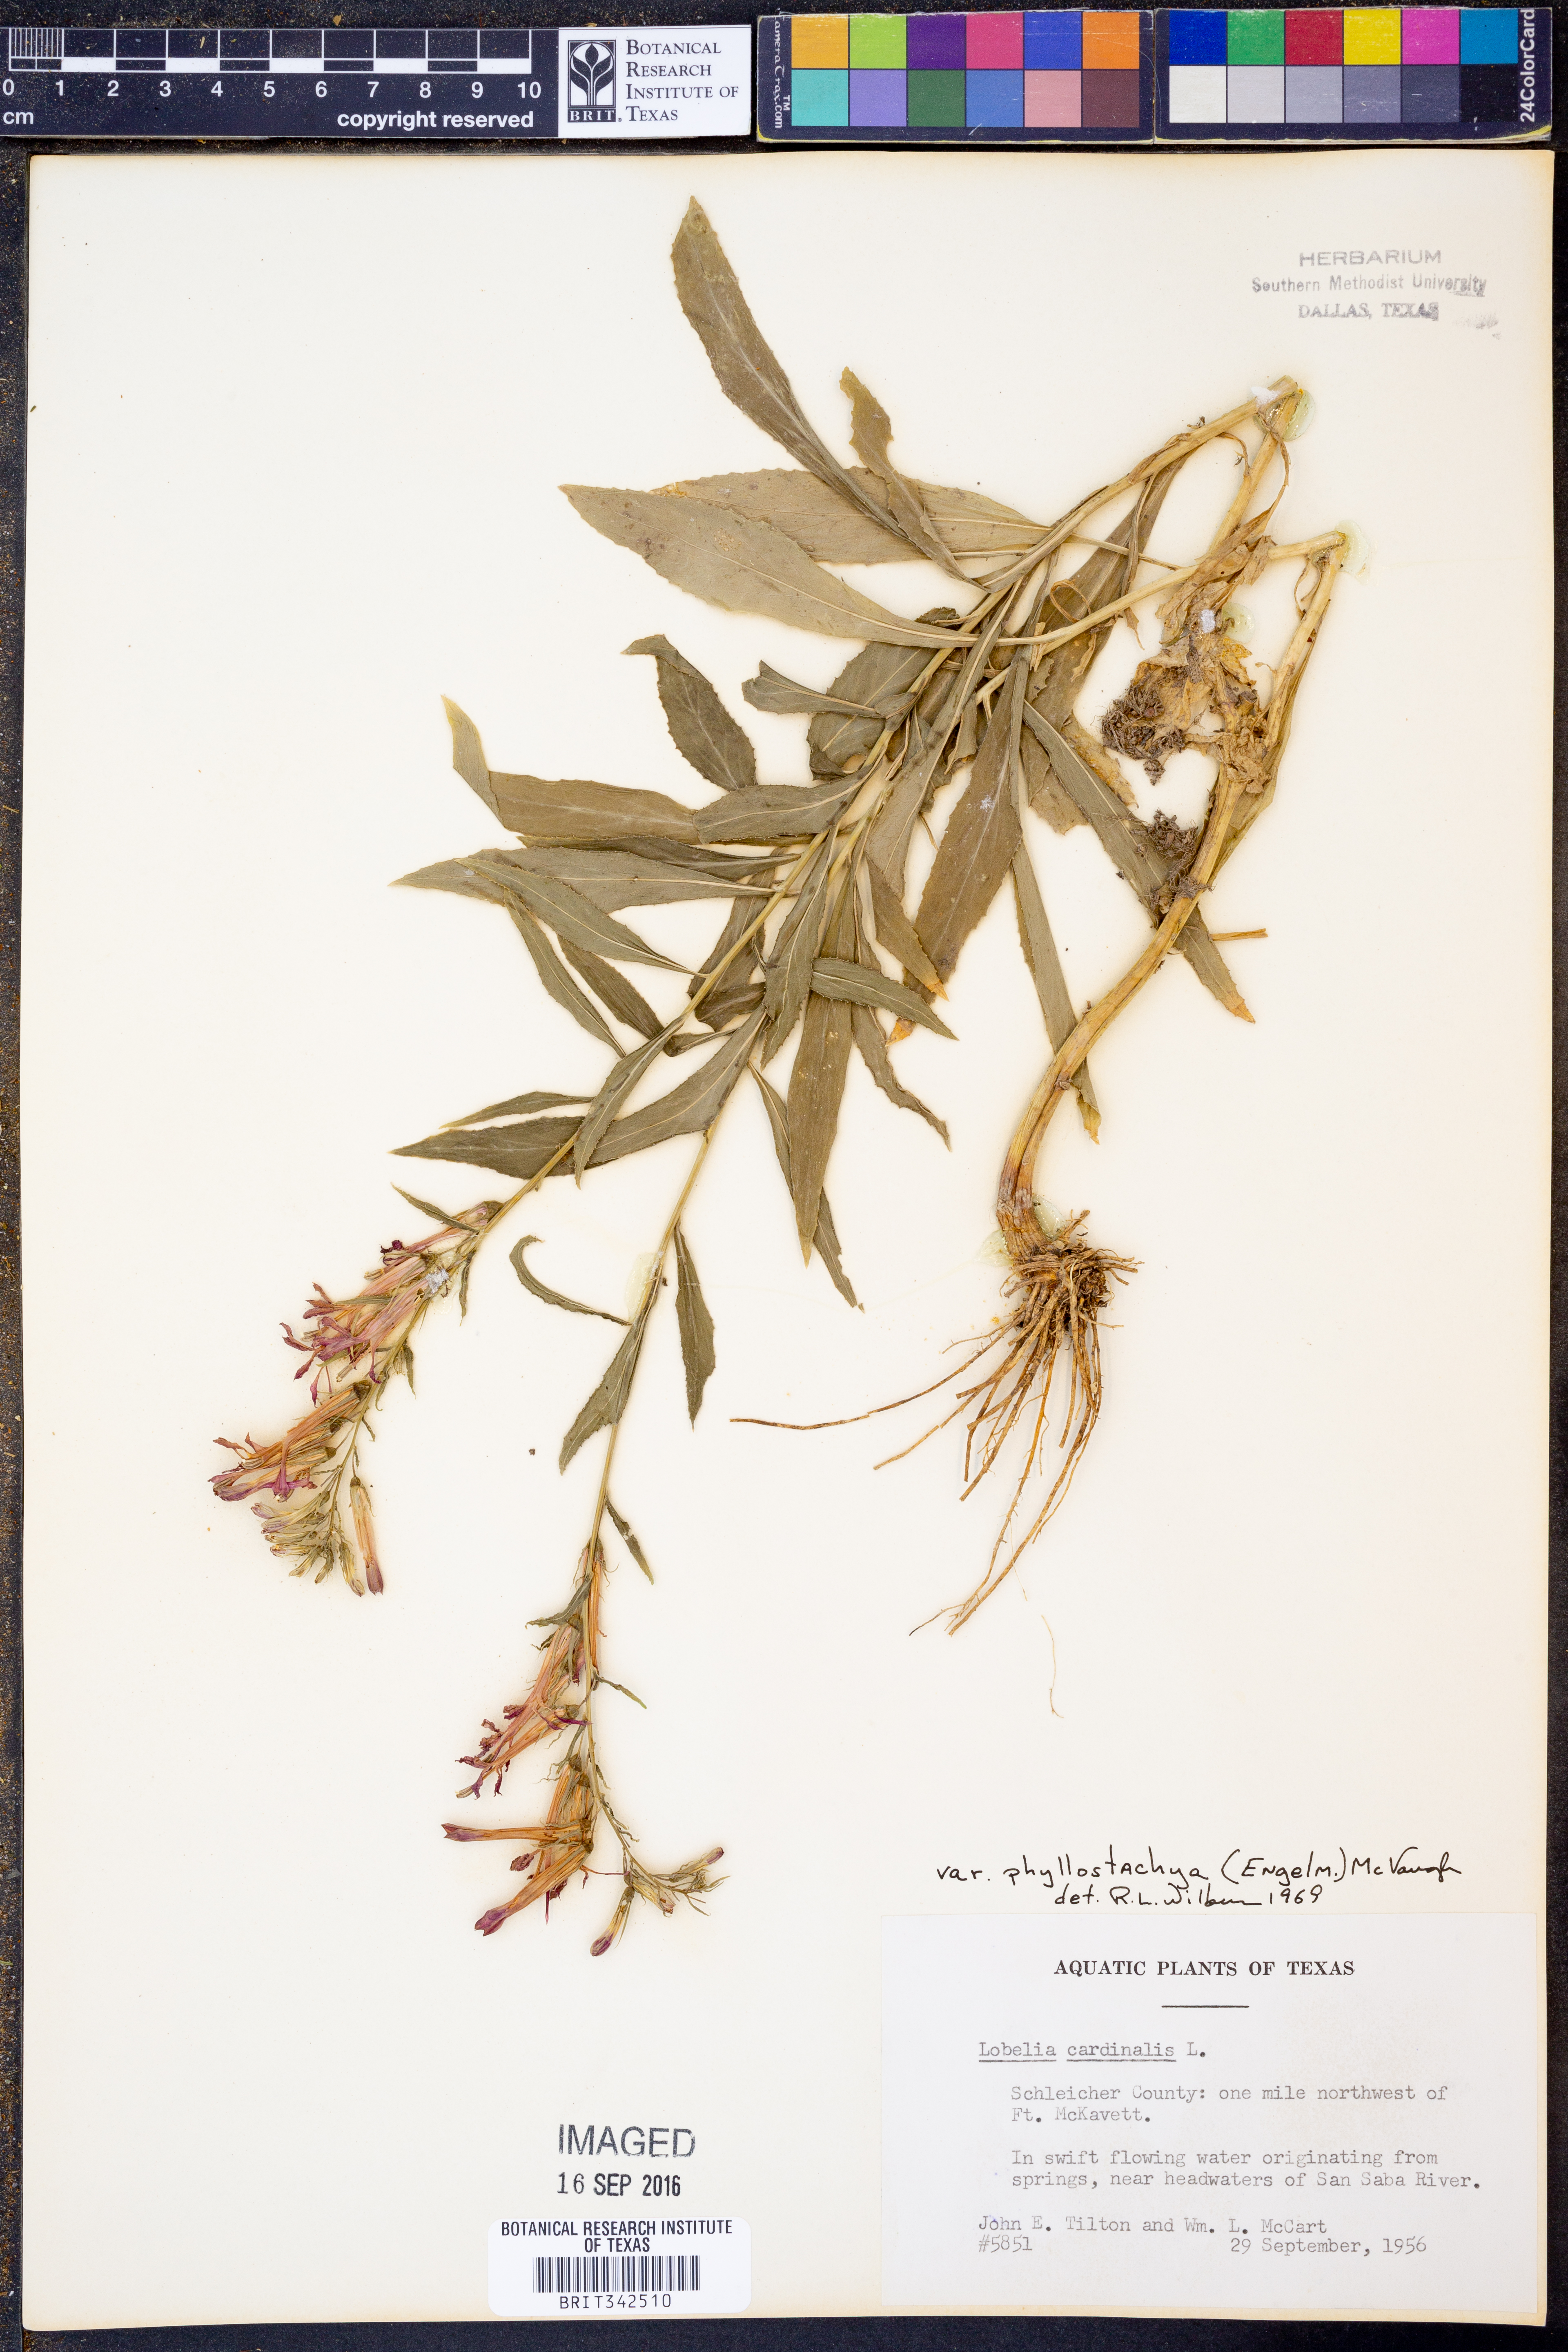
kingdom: Plantae
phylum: Tracheophyta
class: Magnoliopsida
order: Asterales
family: Campanulaceae
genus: Lobelia
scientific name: Lobelia cardinalis
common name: Cardinal flower
